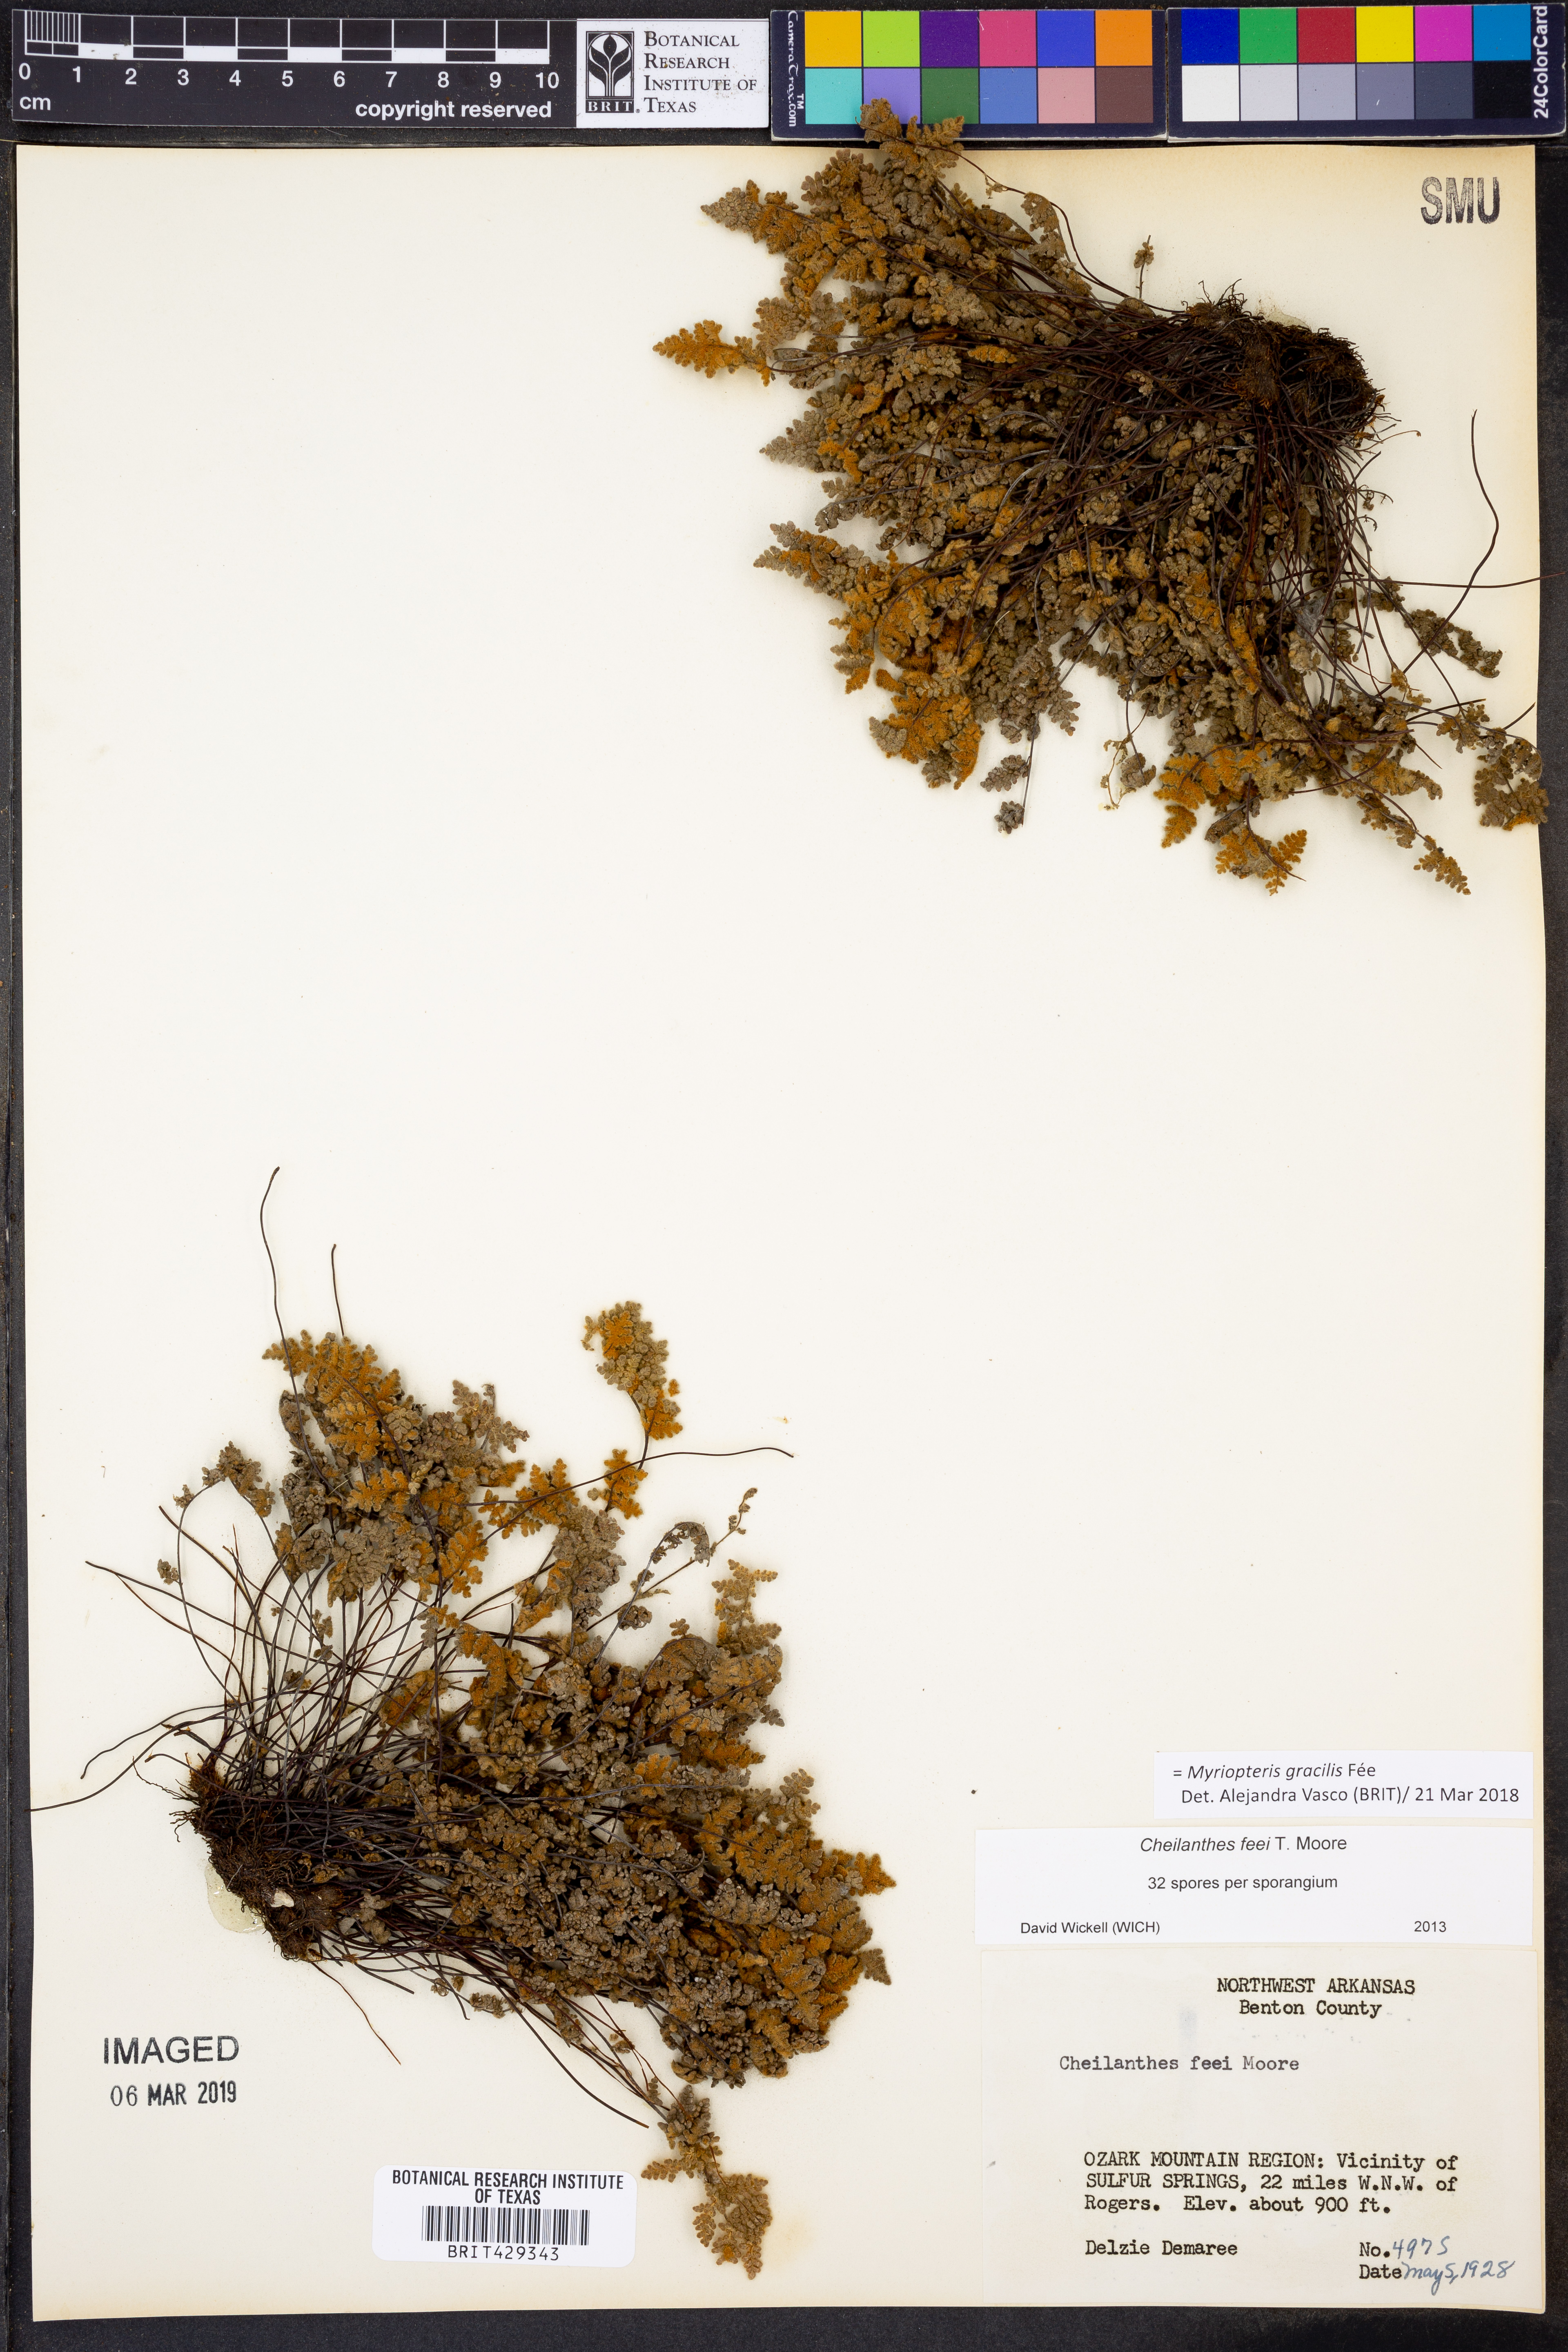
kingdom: Plantae
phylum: Tracheophyta
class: Polypodiopsida
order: Polypodiales
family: Pteridaceae
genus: Myriopteris
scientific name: Myriopteris gracilis
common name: Fee's lip fern
